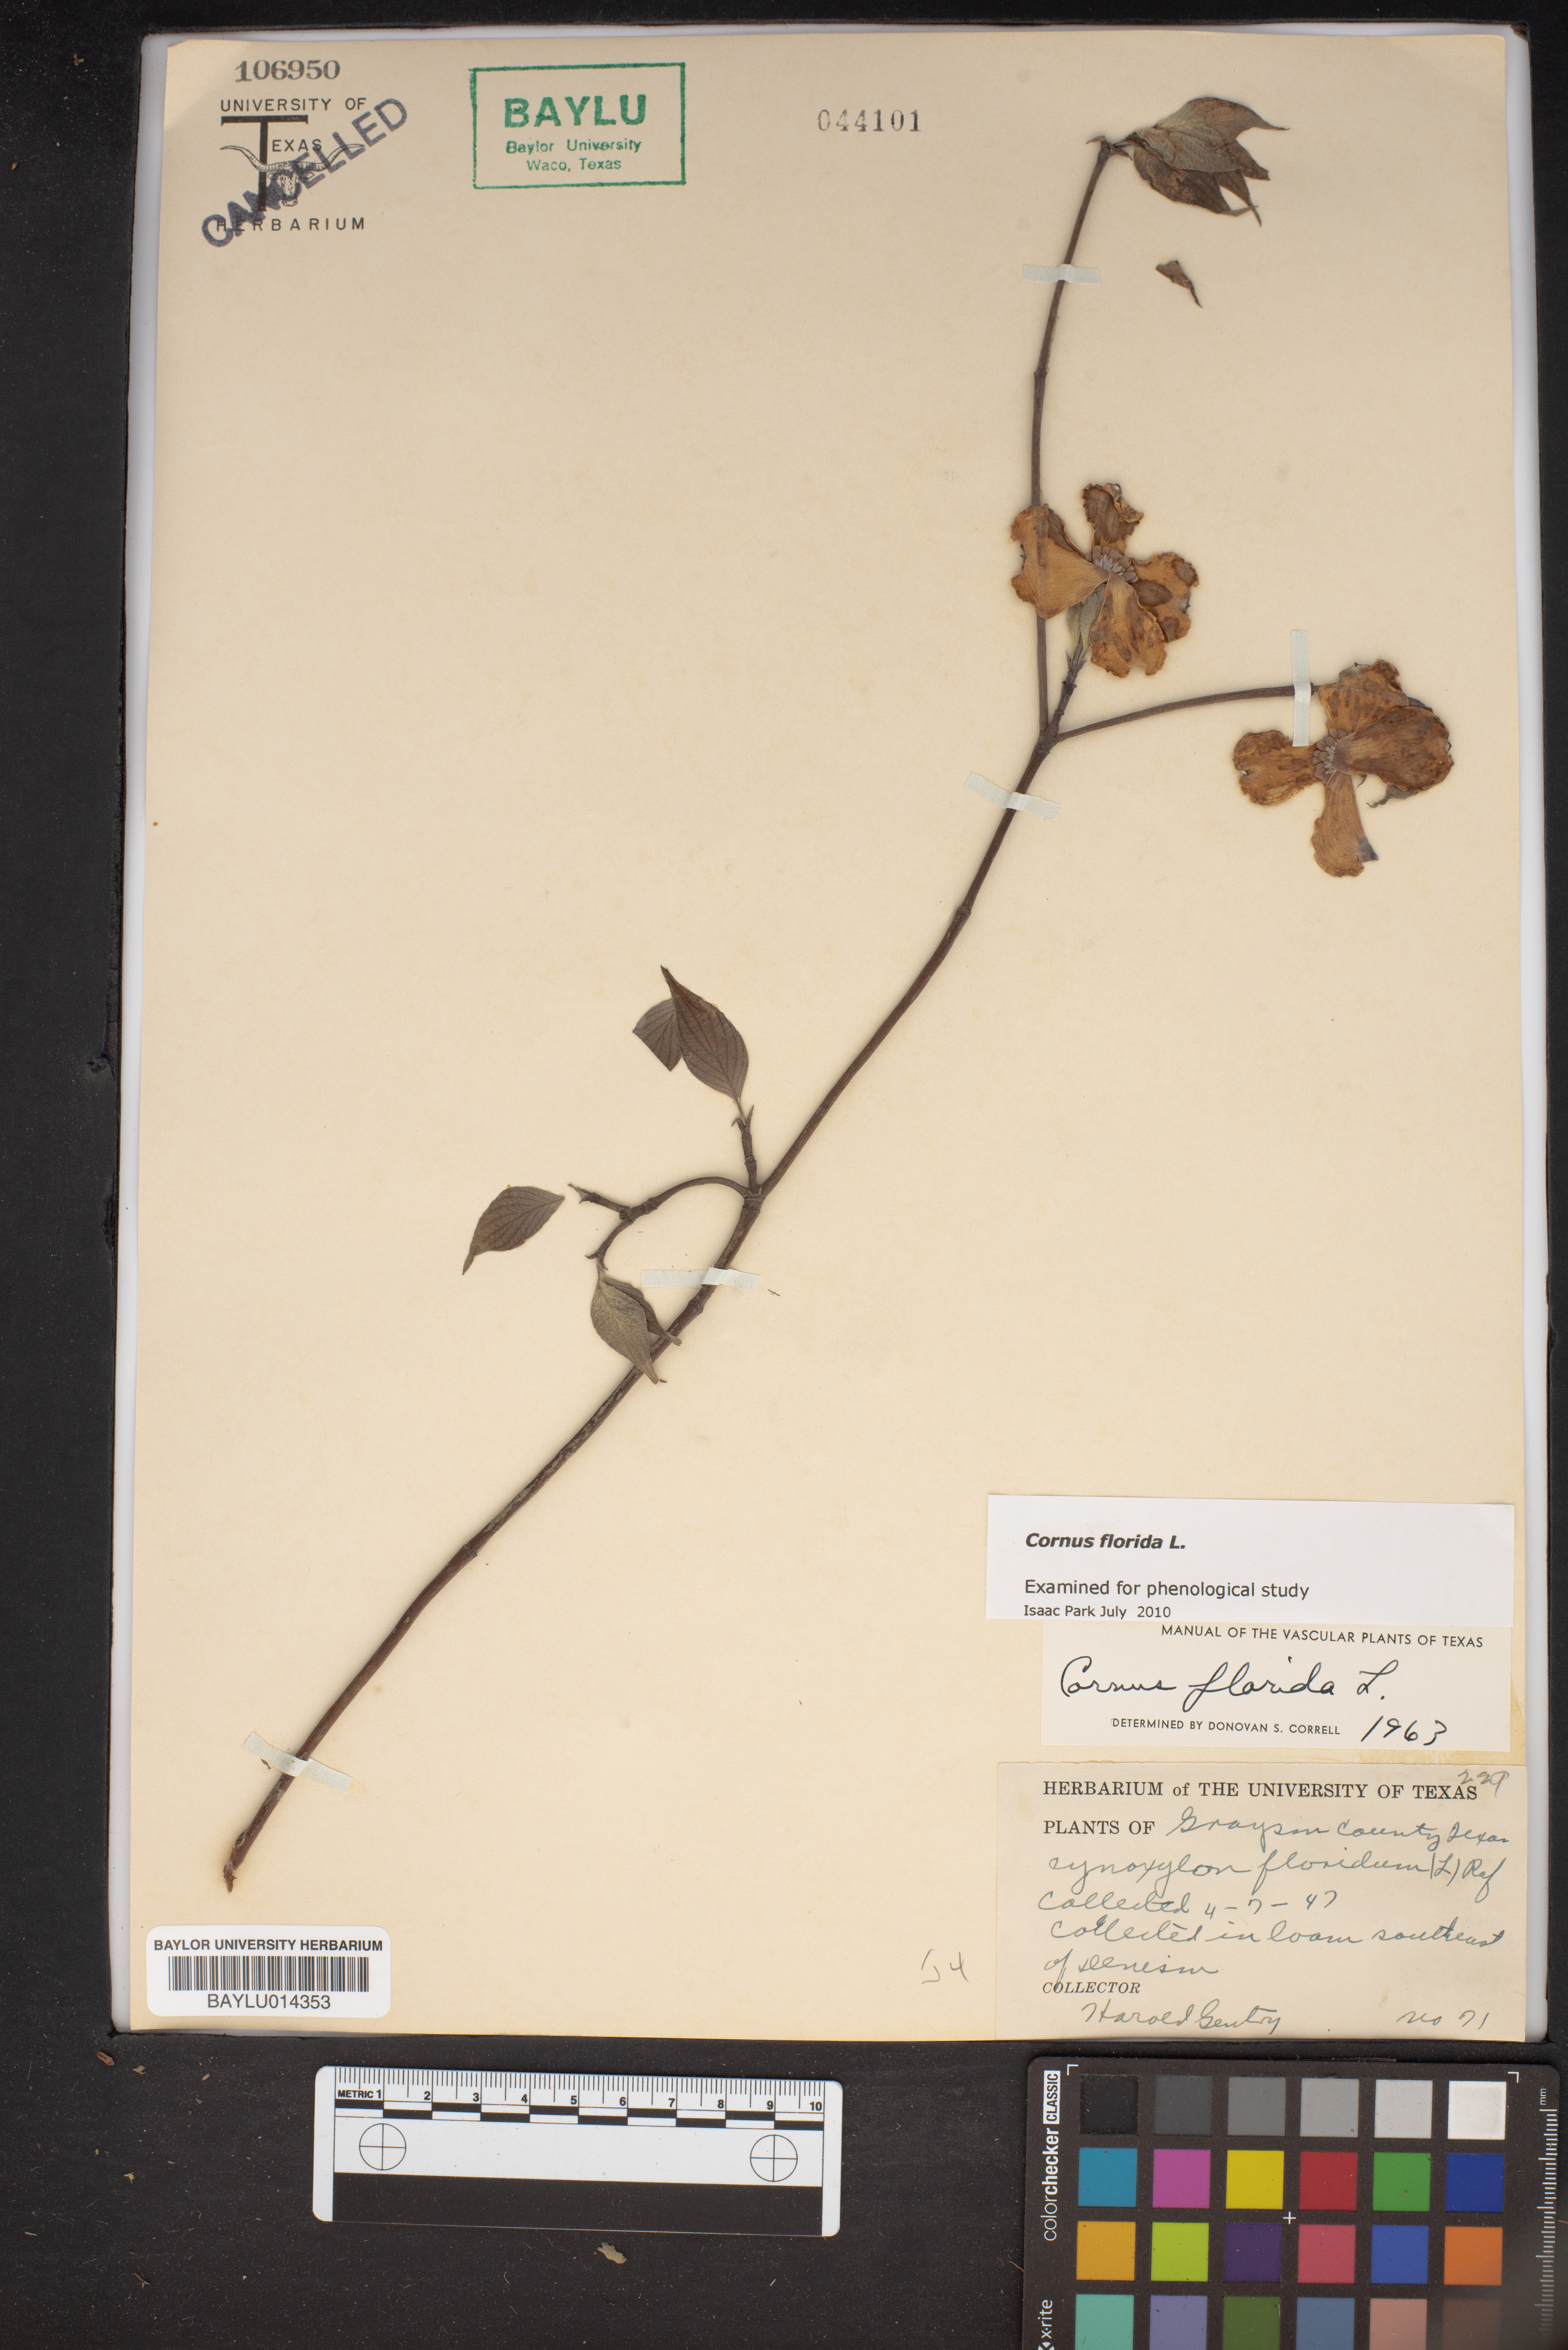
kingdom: Plantae
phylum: Tracheophyta
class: Magnoliopsida
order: Cornales
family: Cornaceae
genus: Cornus
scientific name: Cornus florida
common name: Flowering dogwood
